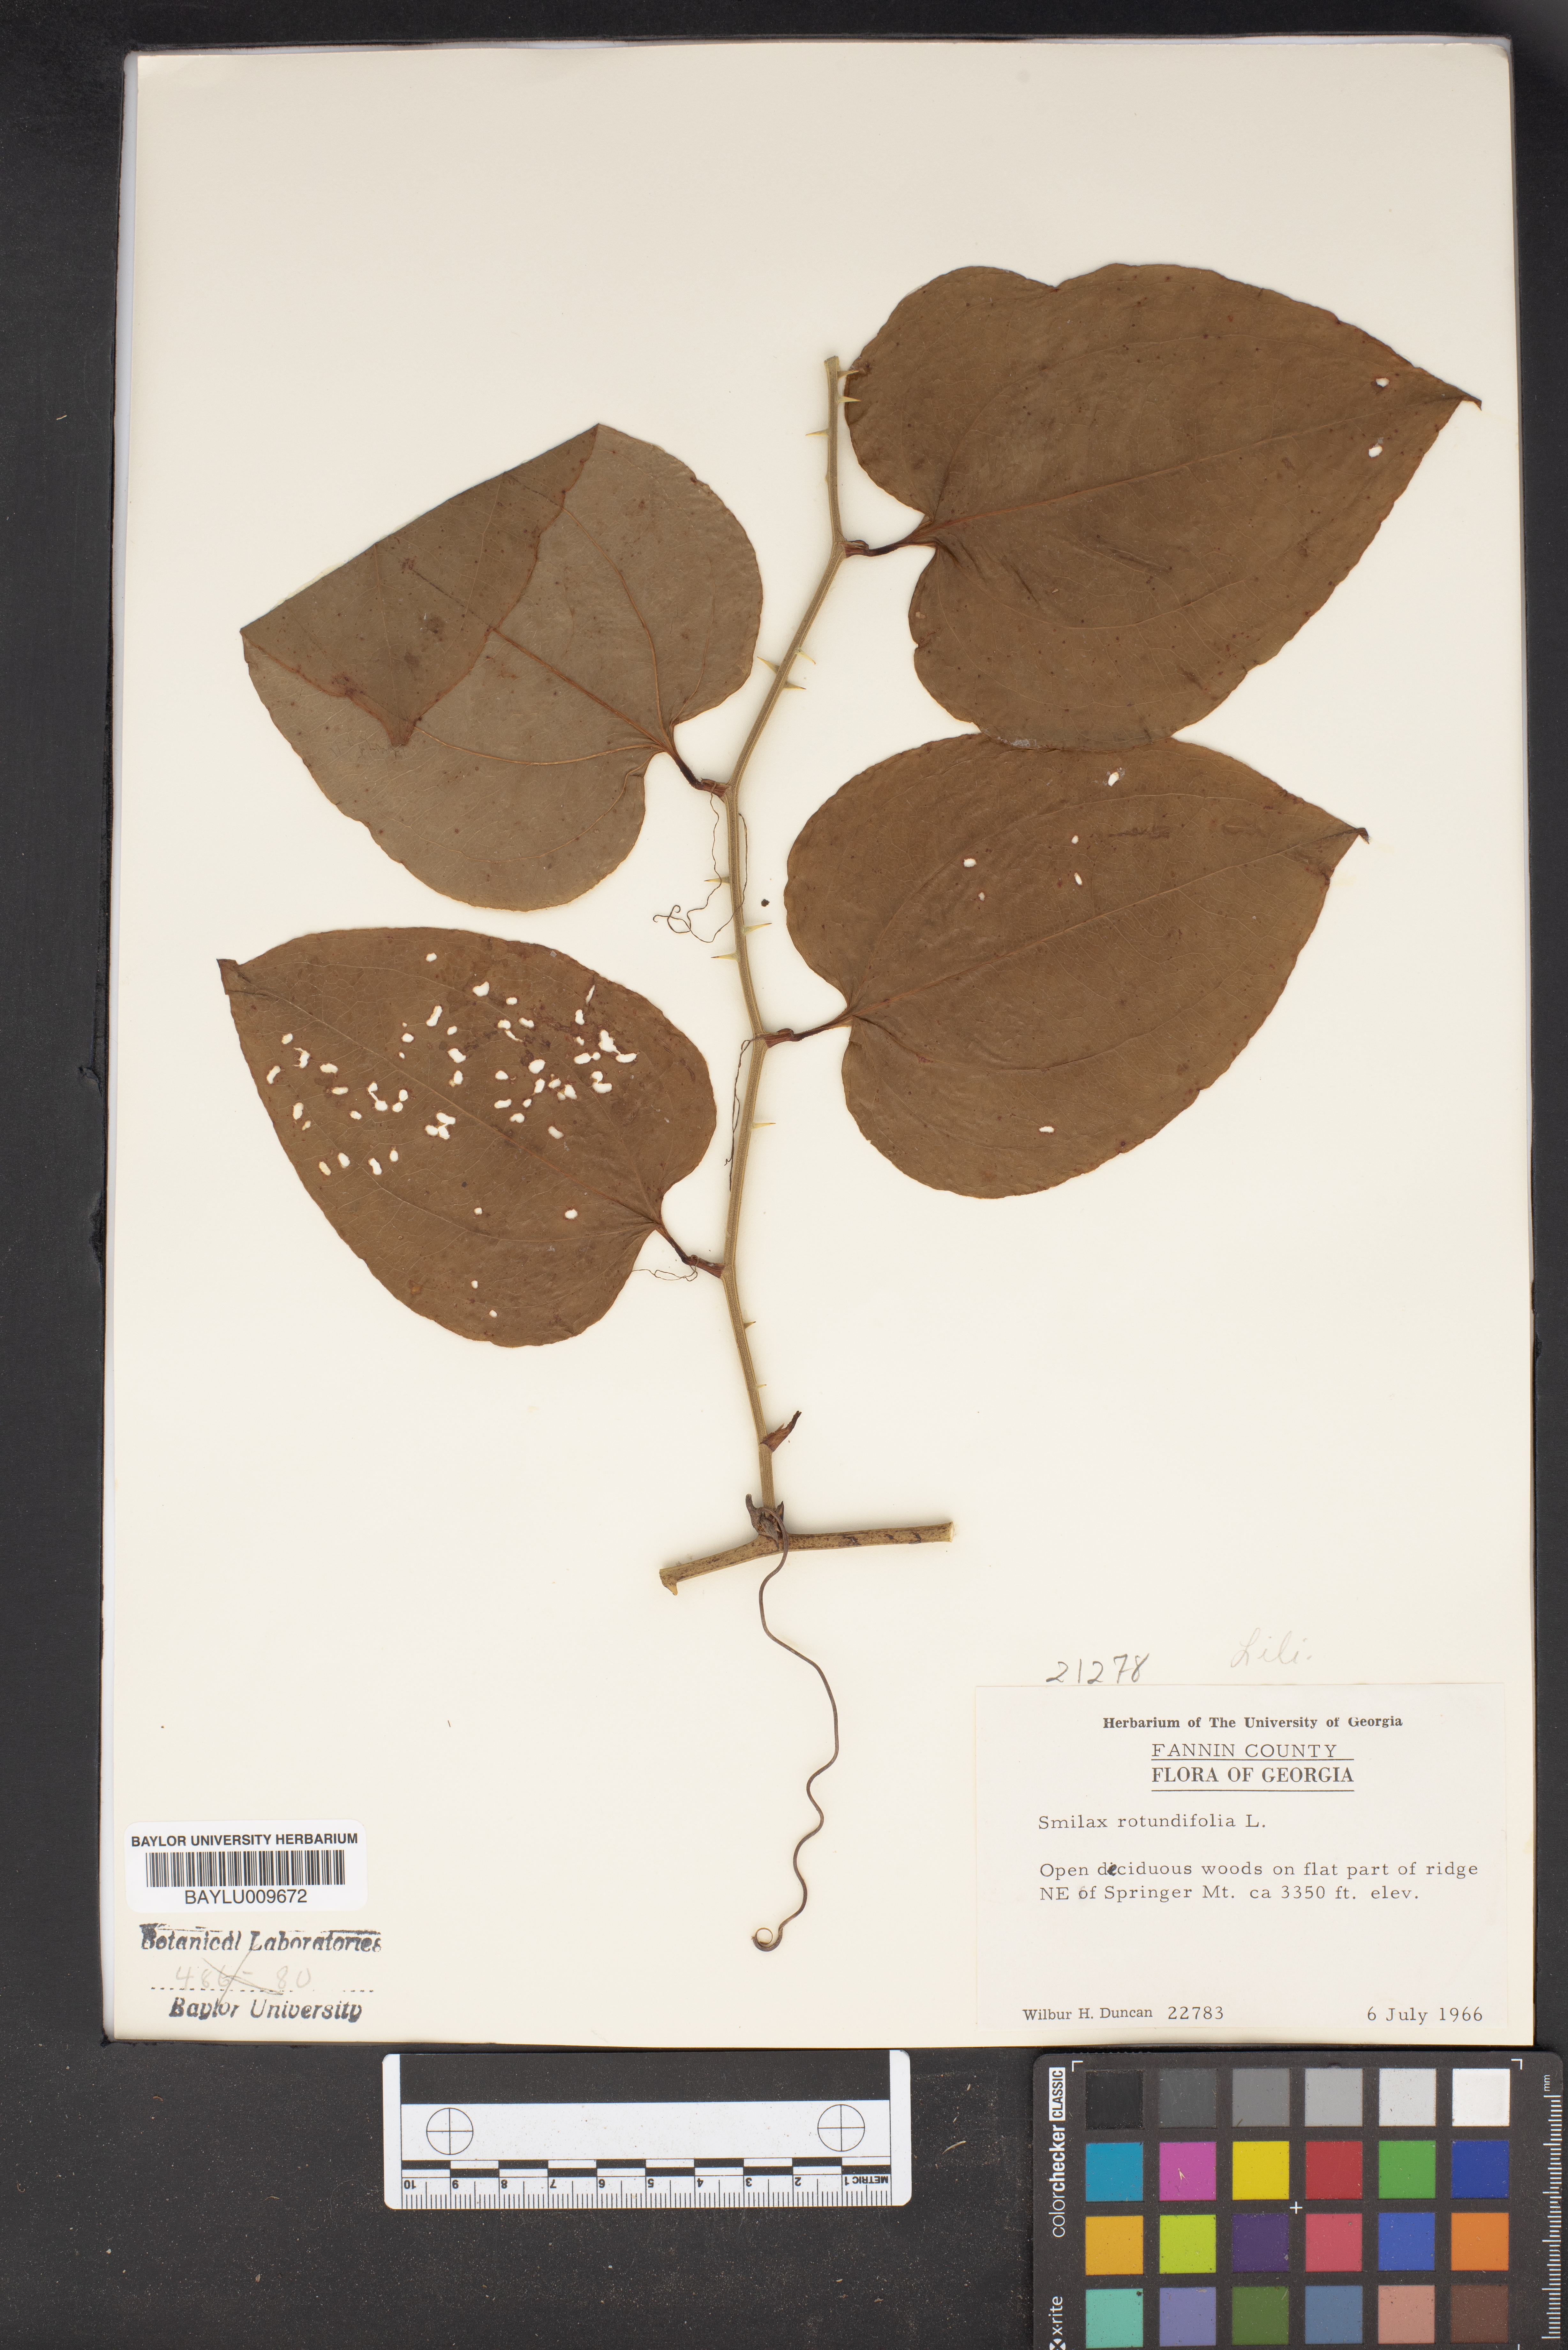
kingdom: Plantae
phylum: Tracheophyta
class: Liliopsida
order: Liliales
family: Smilacaceae
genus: Smilax
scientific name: Smilax rotundifolia
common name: Bullbriar
